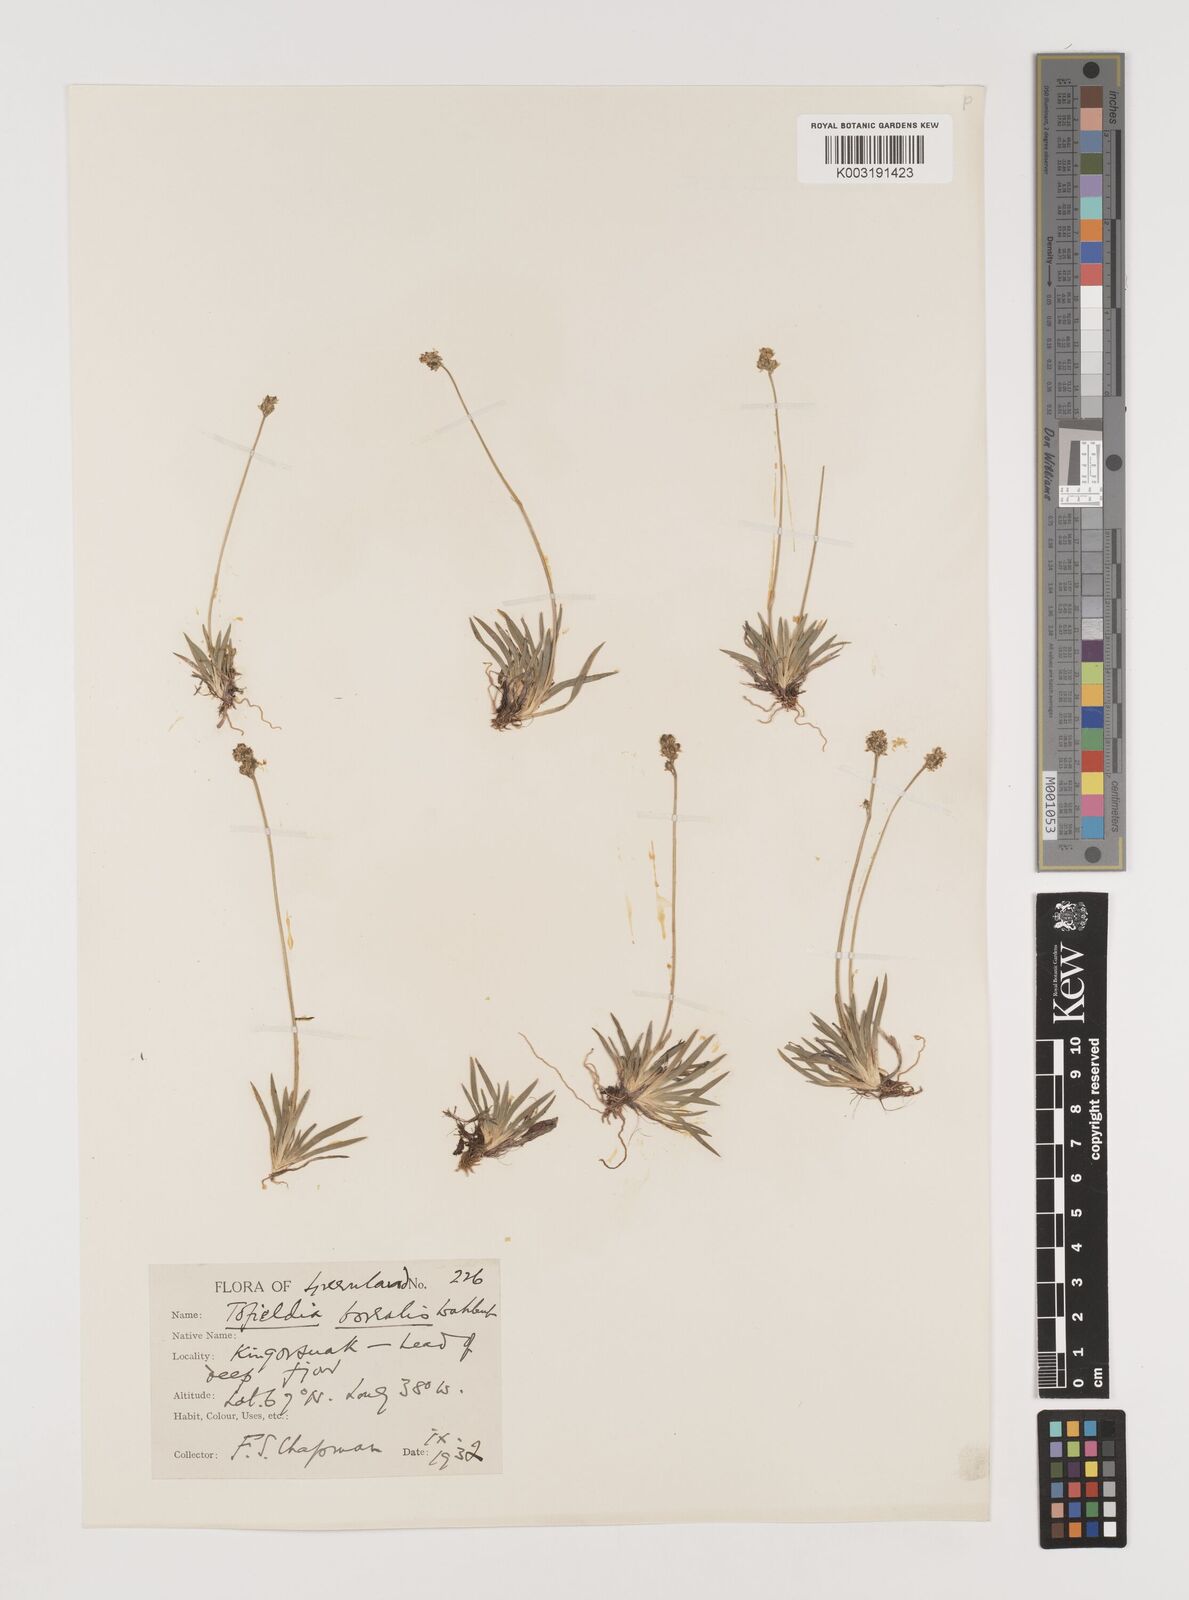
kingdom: Plantae
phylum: Tracheophyta
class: Liliopsida
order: Alismatales
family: Tofieldiaceae
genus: Tofieldia
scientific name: Tofieldia pusilla
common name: Scottish false asphodel
